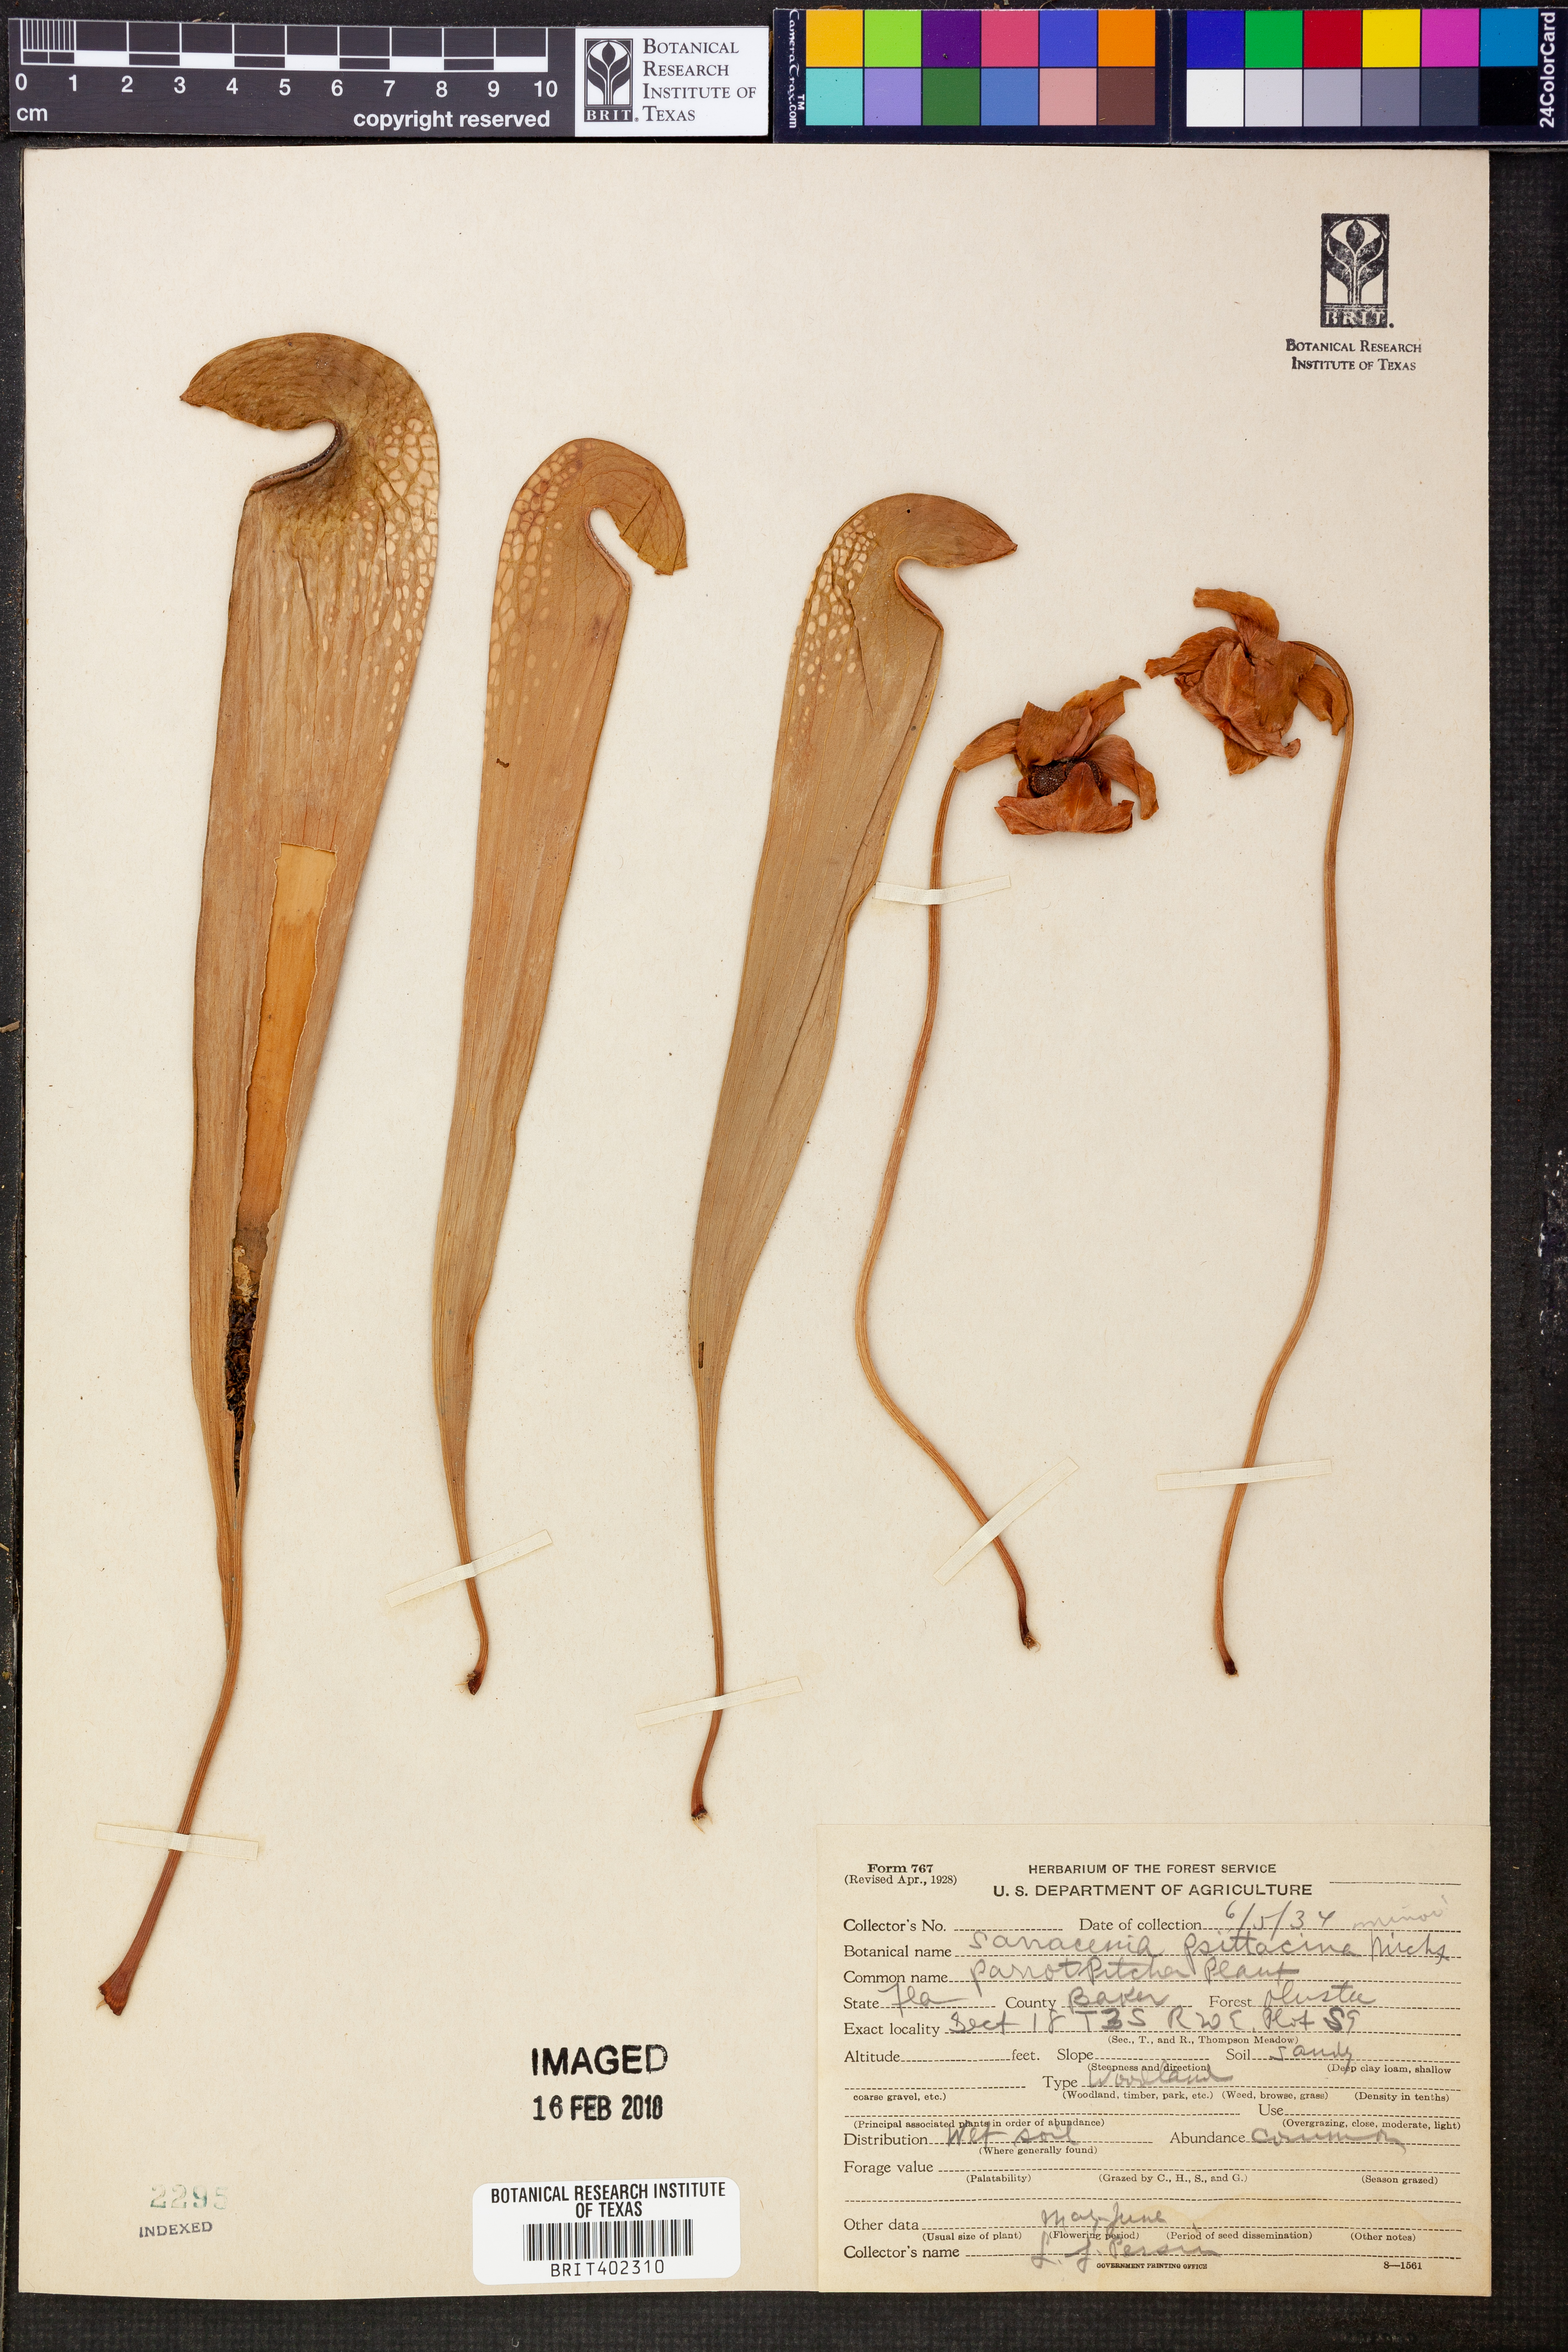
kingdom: Plantae
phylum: Tracheophyta
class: Magnoliopsida
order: Ericales
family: Sarraceniaceae
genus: Sarracenia
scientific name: Sarracenia psittacina
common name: Parrot pitcherplant
